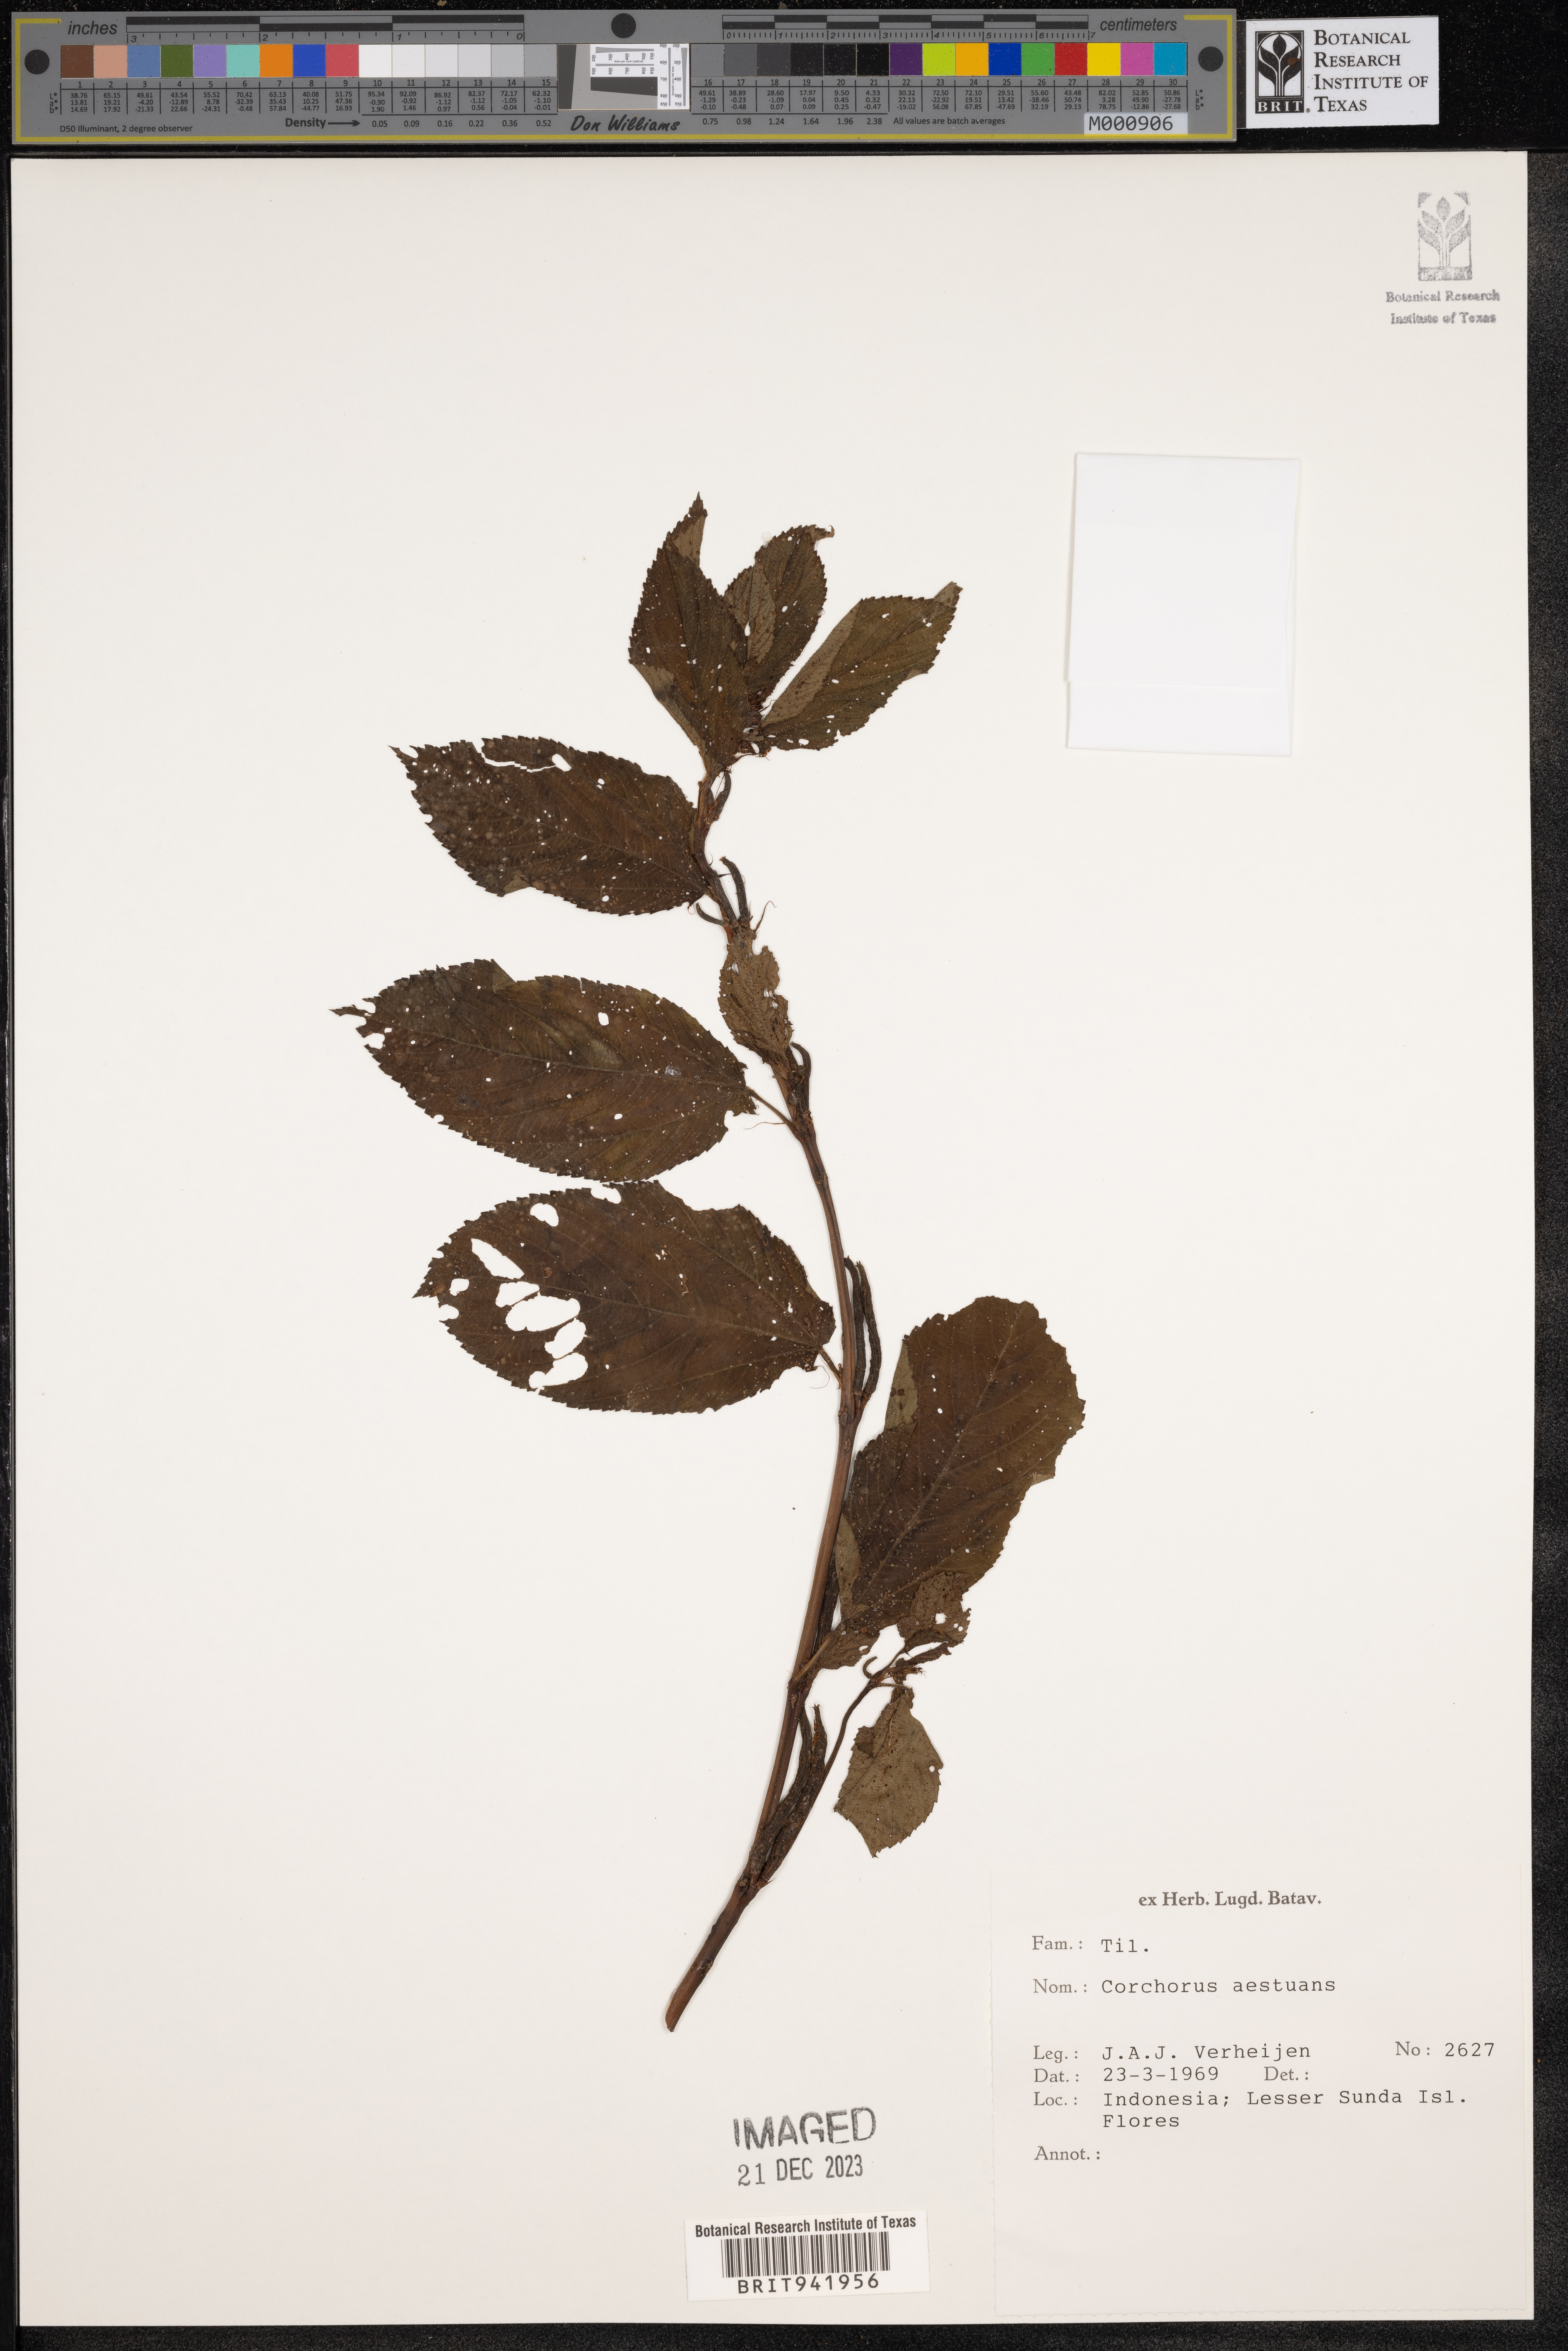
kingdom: Plantae
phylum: Tracheophyta
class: Magnoliopsida
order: Malvales
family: Malvaceae
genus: Corchorus
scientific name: Corchorus aestuans
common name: Jute
